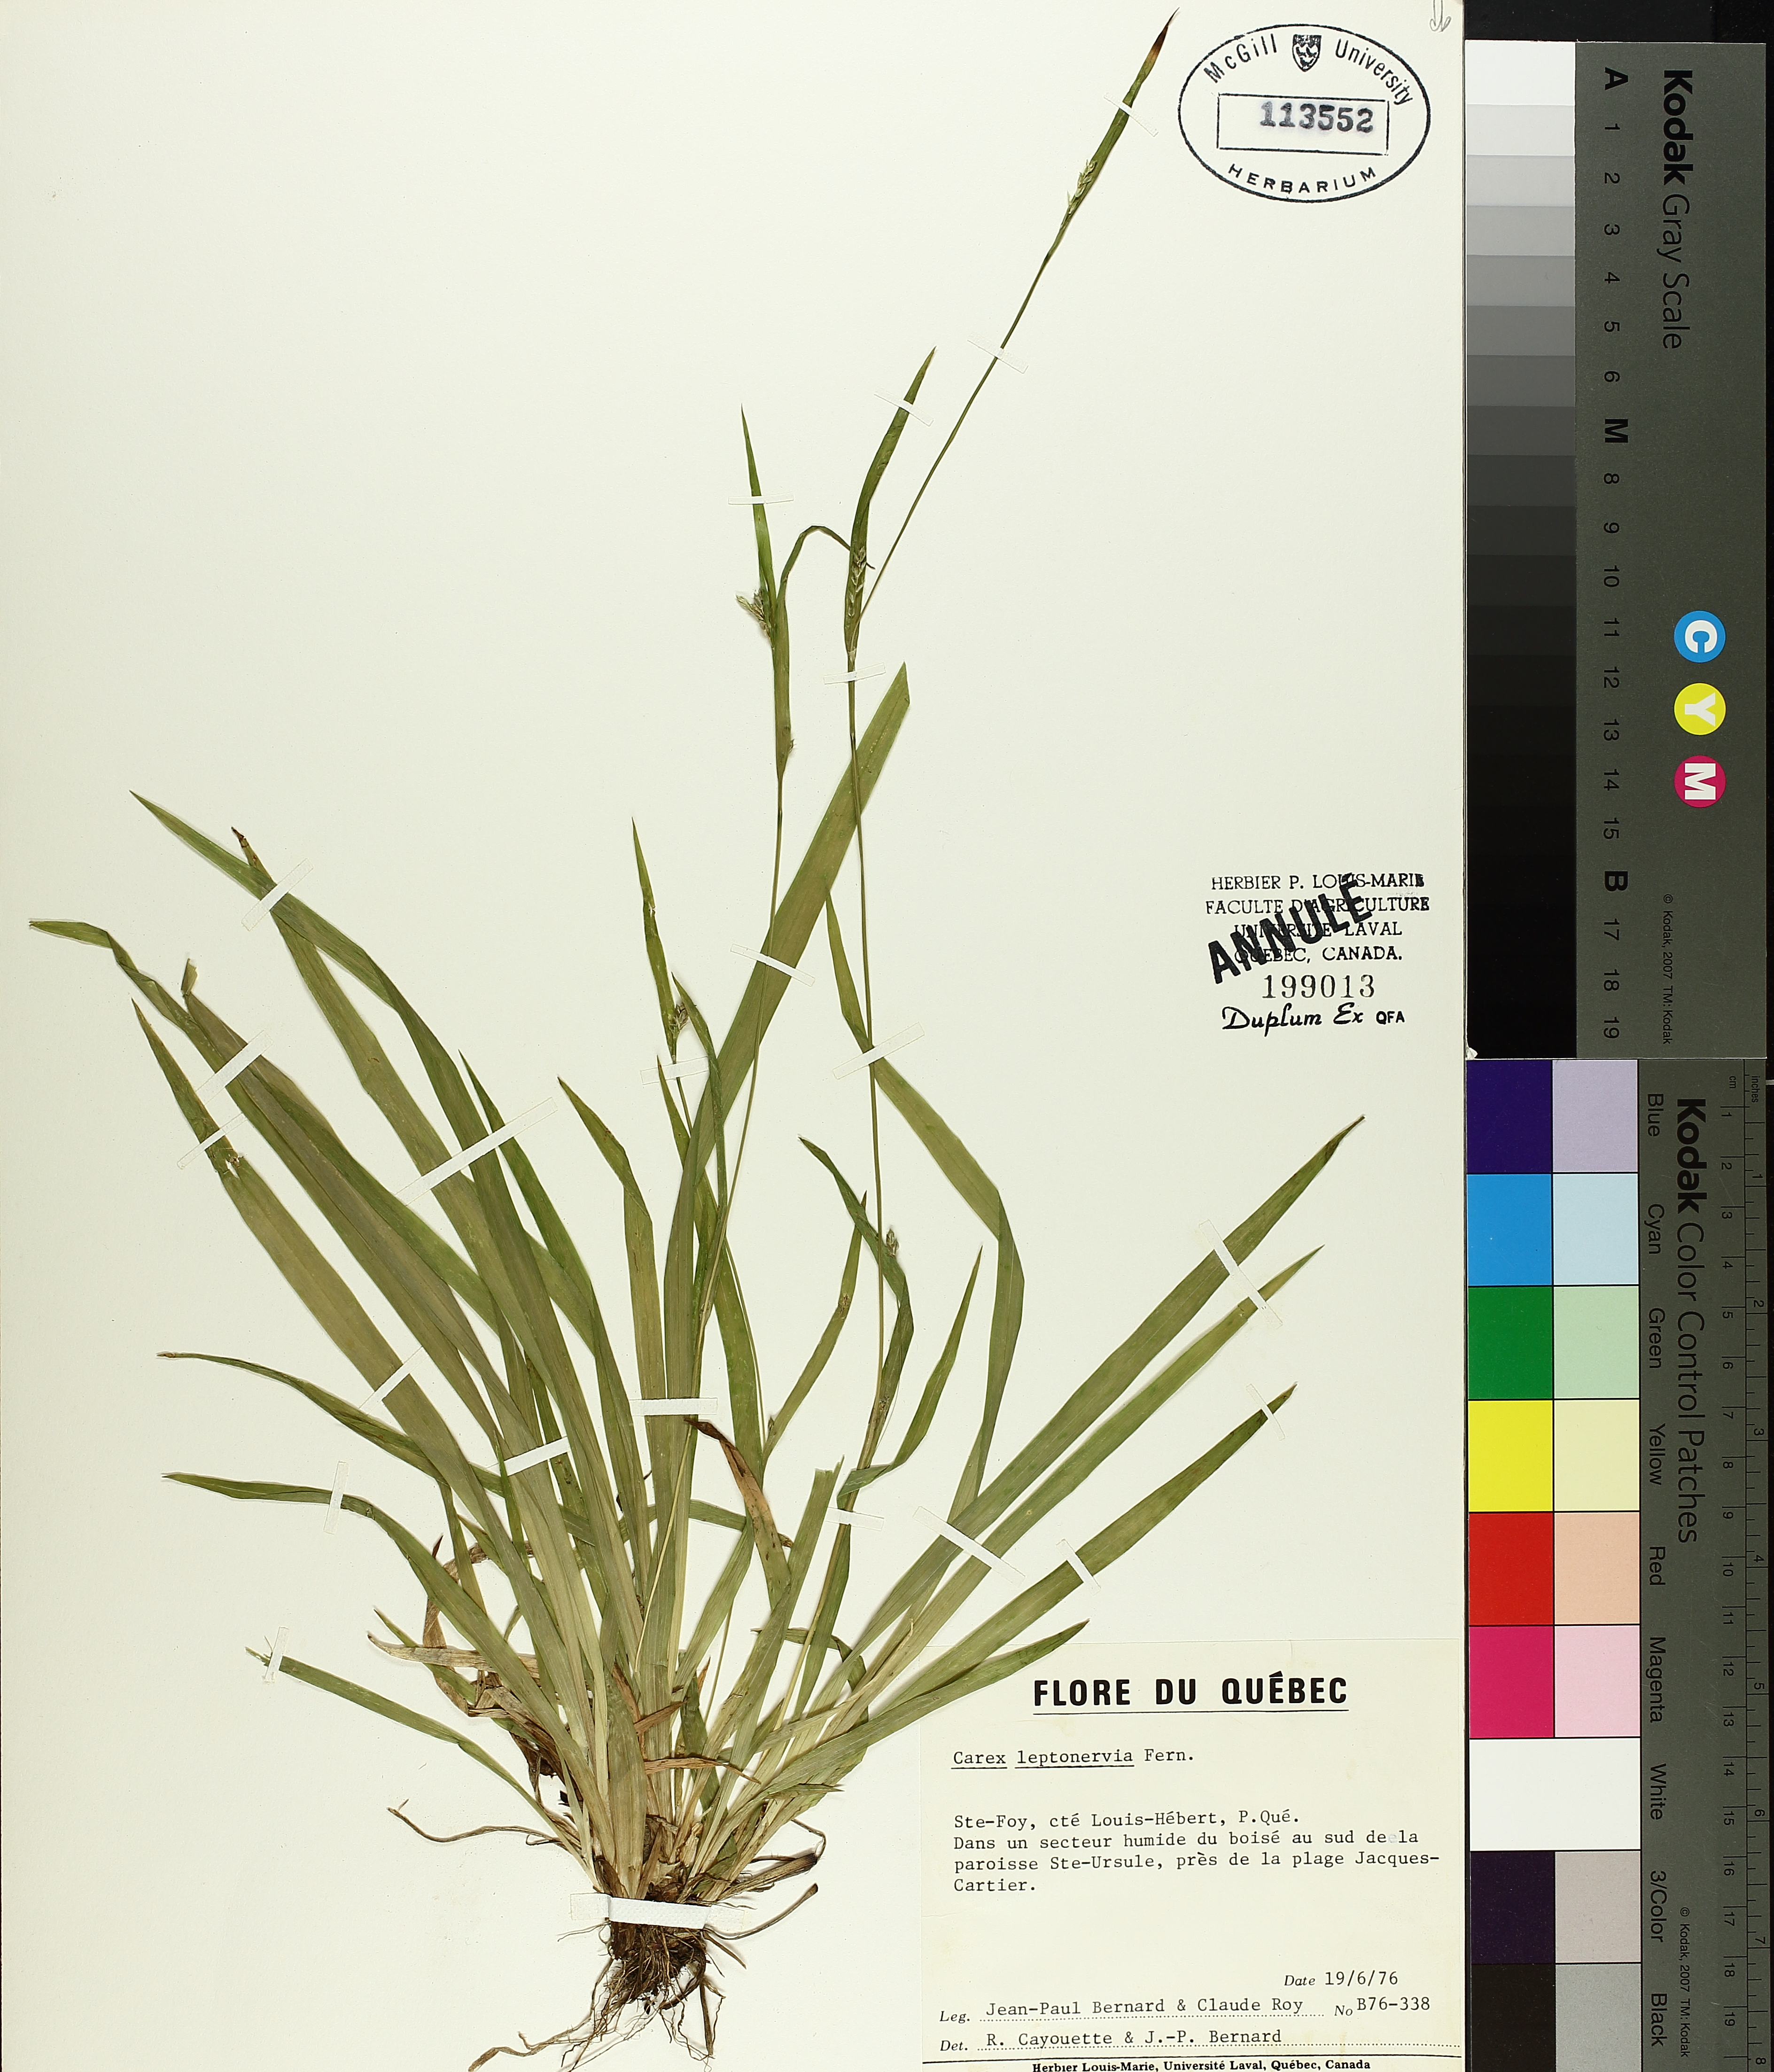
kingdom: Plantae
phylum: Tracheophyta
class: Liliopsida
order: Poales
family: Cyperaceae
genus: Carex
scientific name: Carex leptonervia
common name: Few-nerved wood sedge
